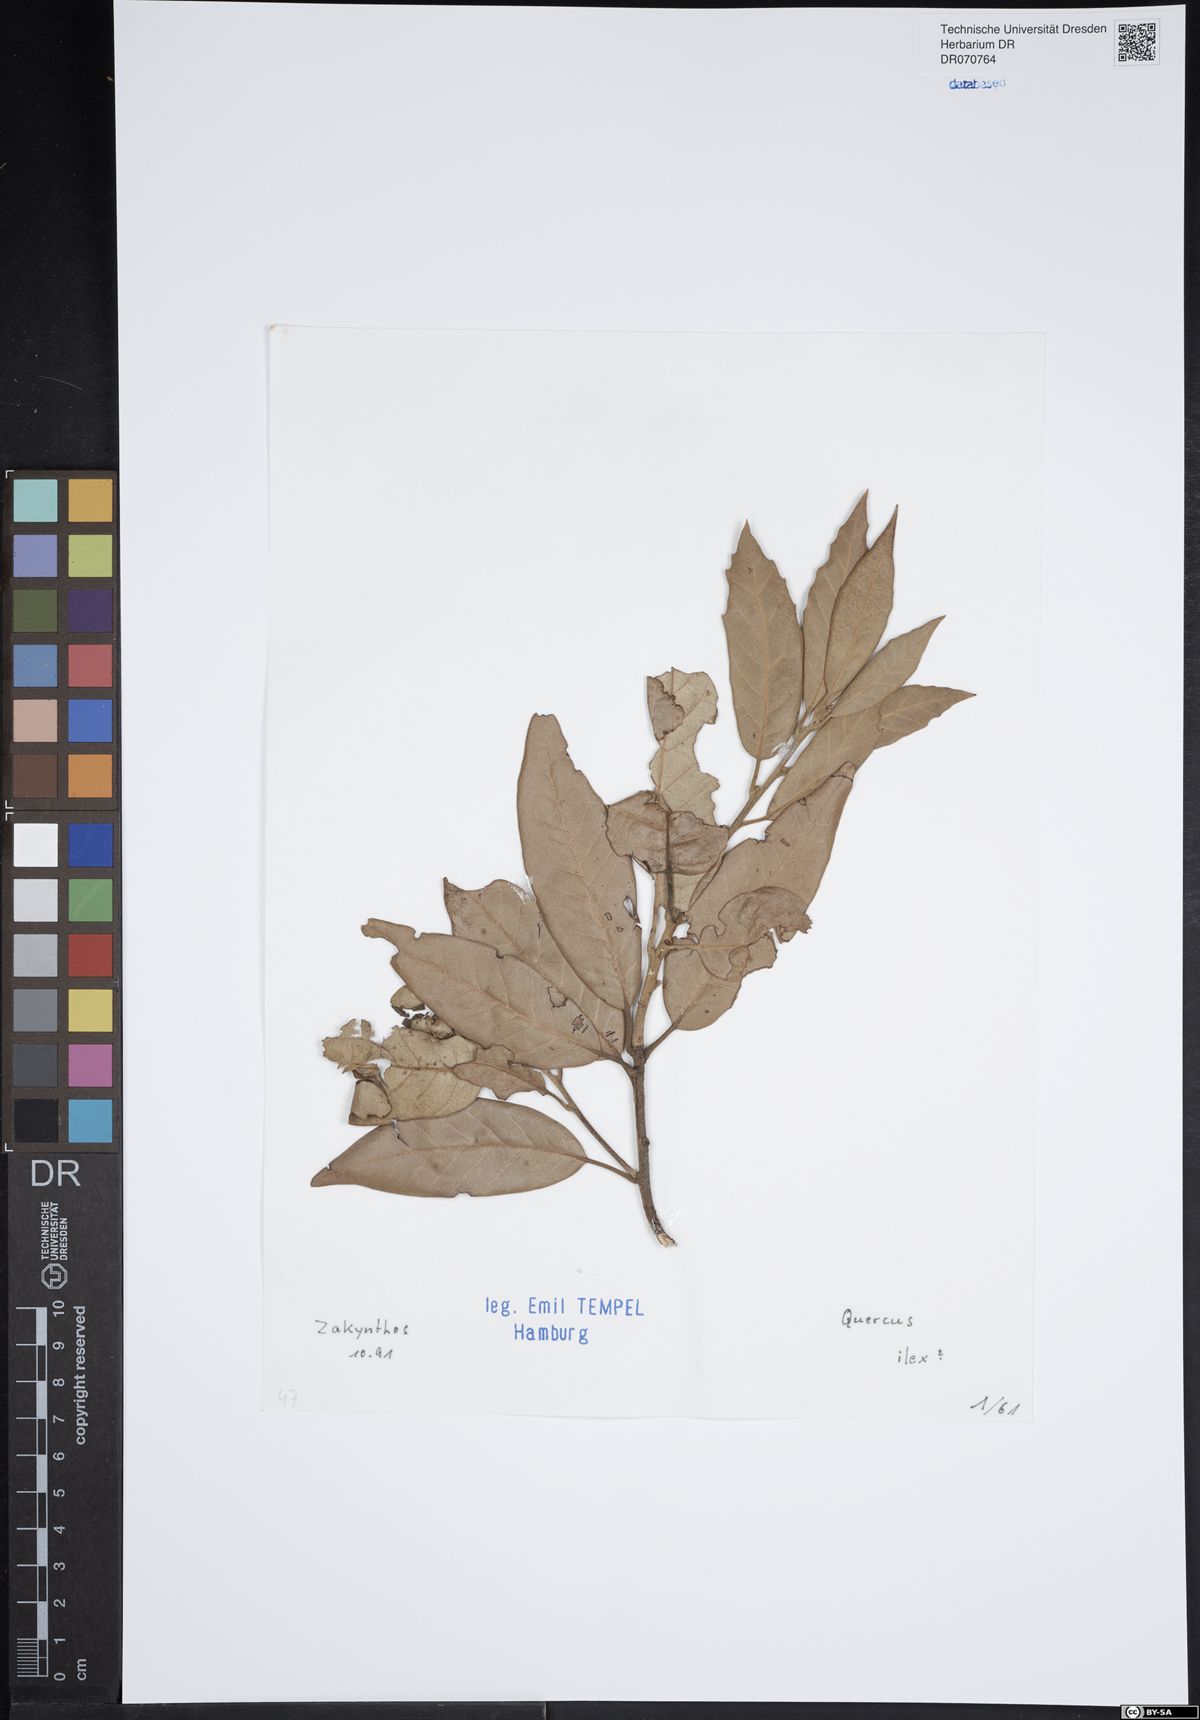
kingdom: Plantae
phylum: Tracheophyta
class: Magnoliopsida
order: Fagales
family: Fagaceae
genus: Quercus
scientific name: Quercus ilex
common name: Evergreen oak
